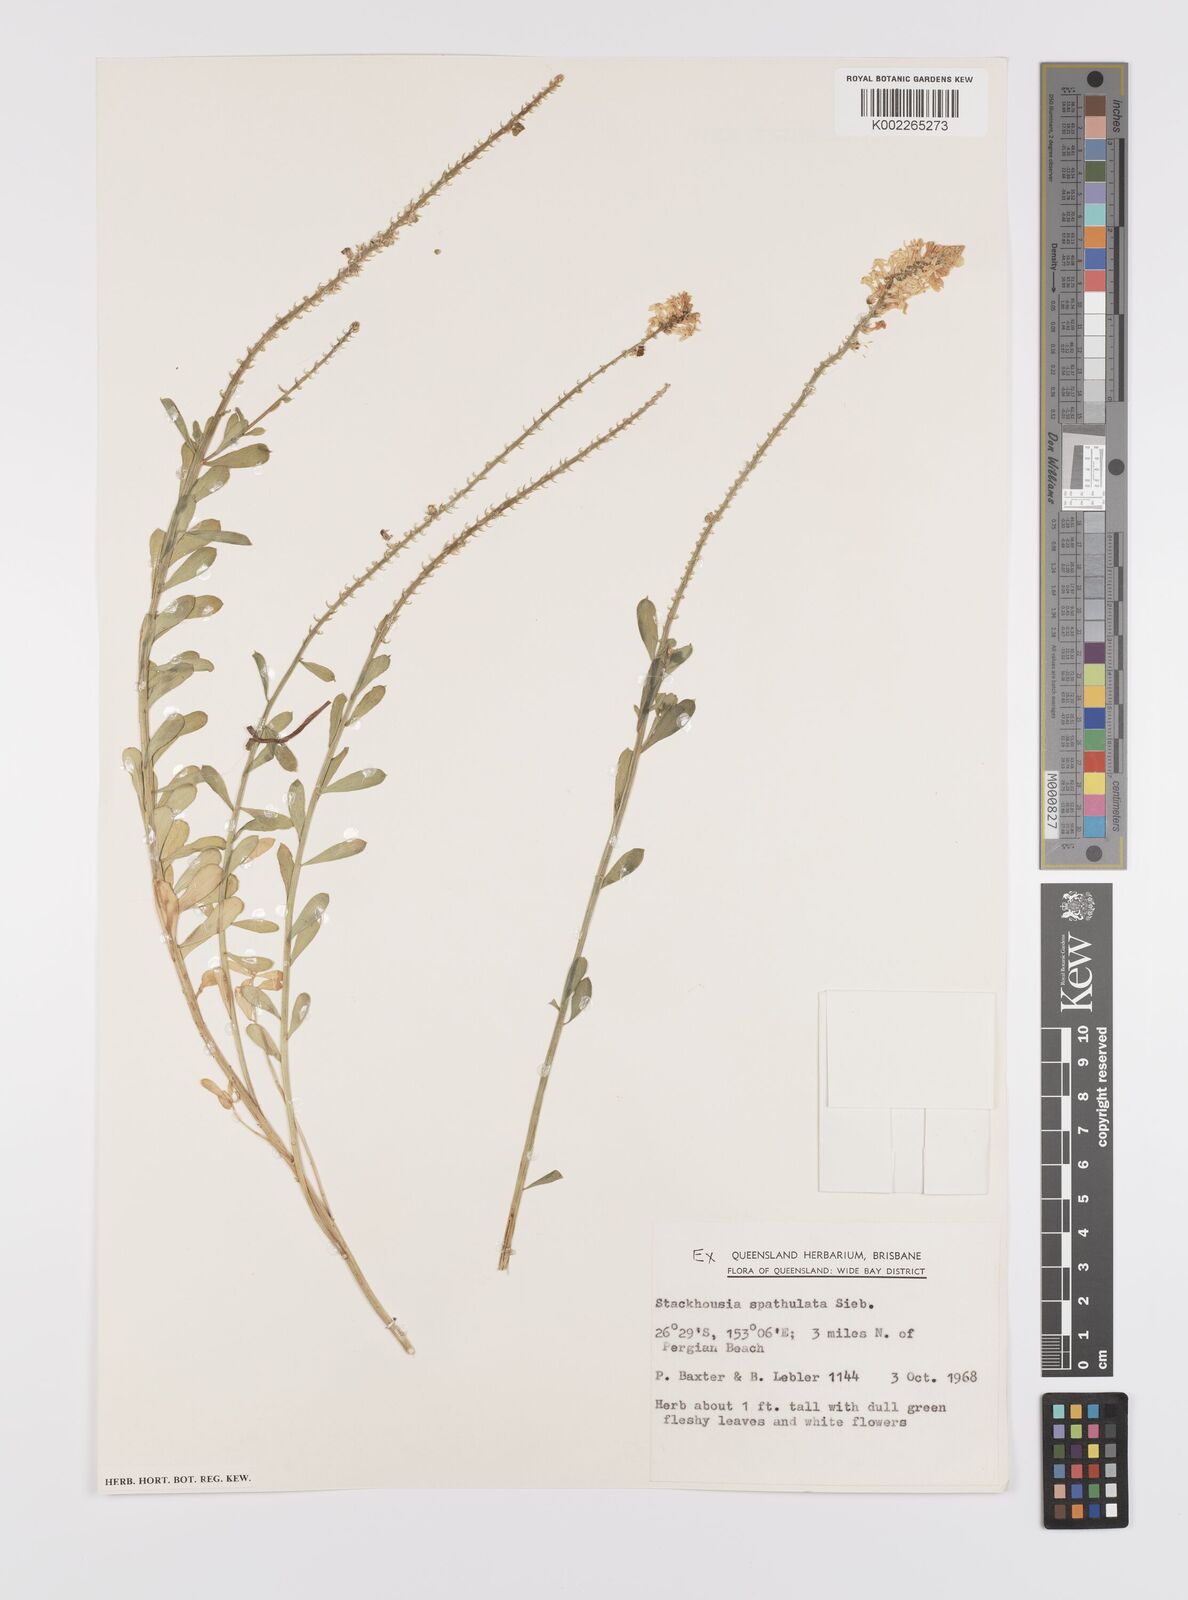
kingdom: Plantae
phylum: Tracheophyta
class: Magnoliopsida
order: Celastrales
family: Celastraceae
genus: Stackhousia
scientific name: Stackhousia spathulata
